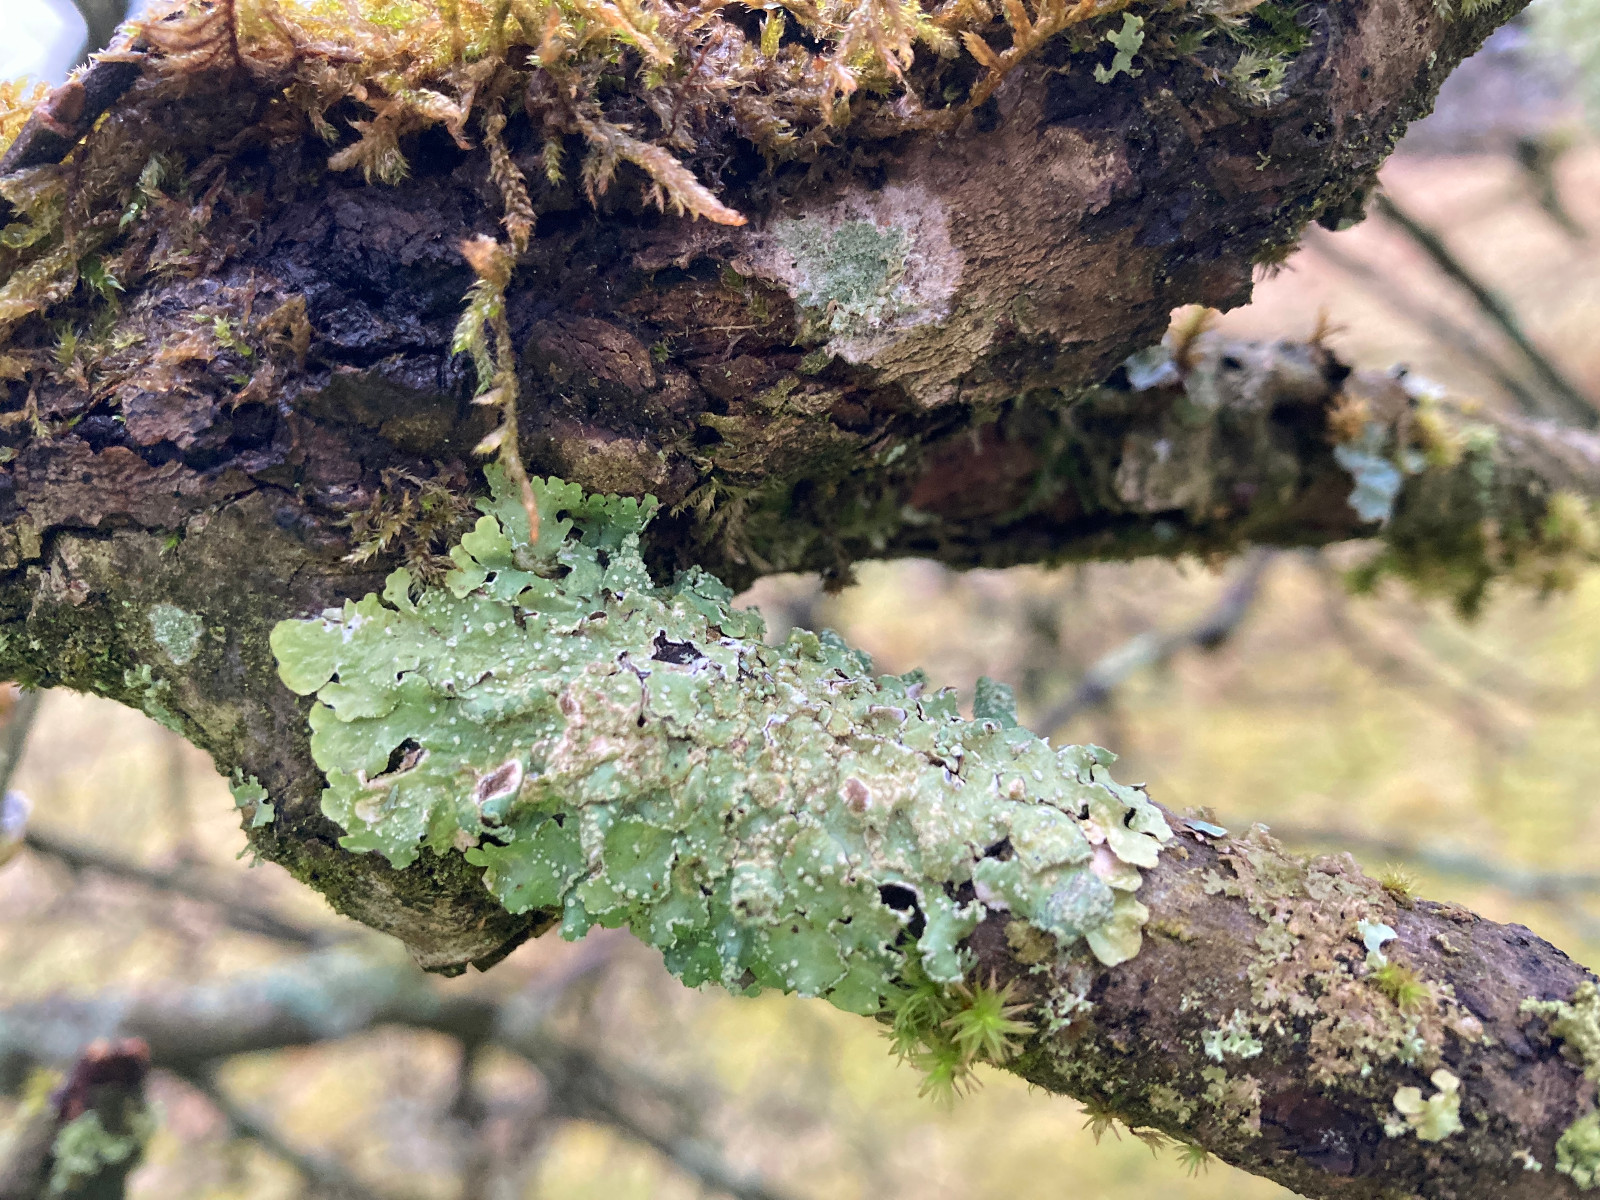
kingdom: Fungi
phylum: Ascomycota
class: Lecanoromycetes
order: Lecanorales
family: Parmeliaceae
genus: Punctelia
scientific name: Punctelia subrudecta
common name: punkt-skållav
